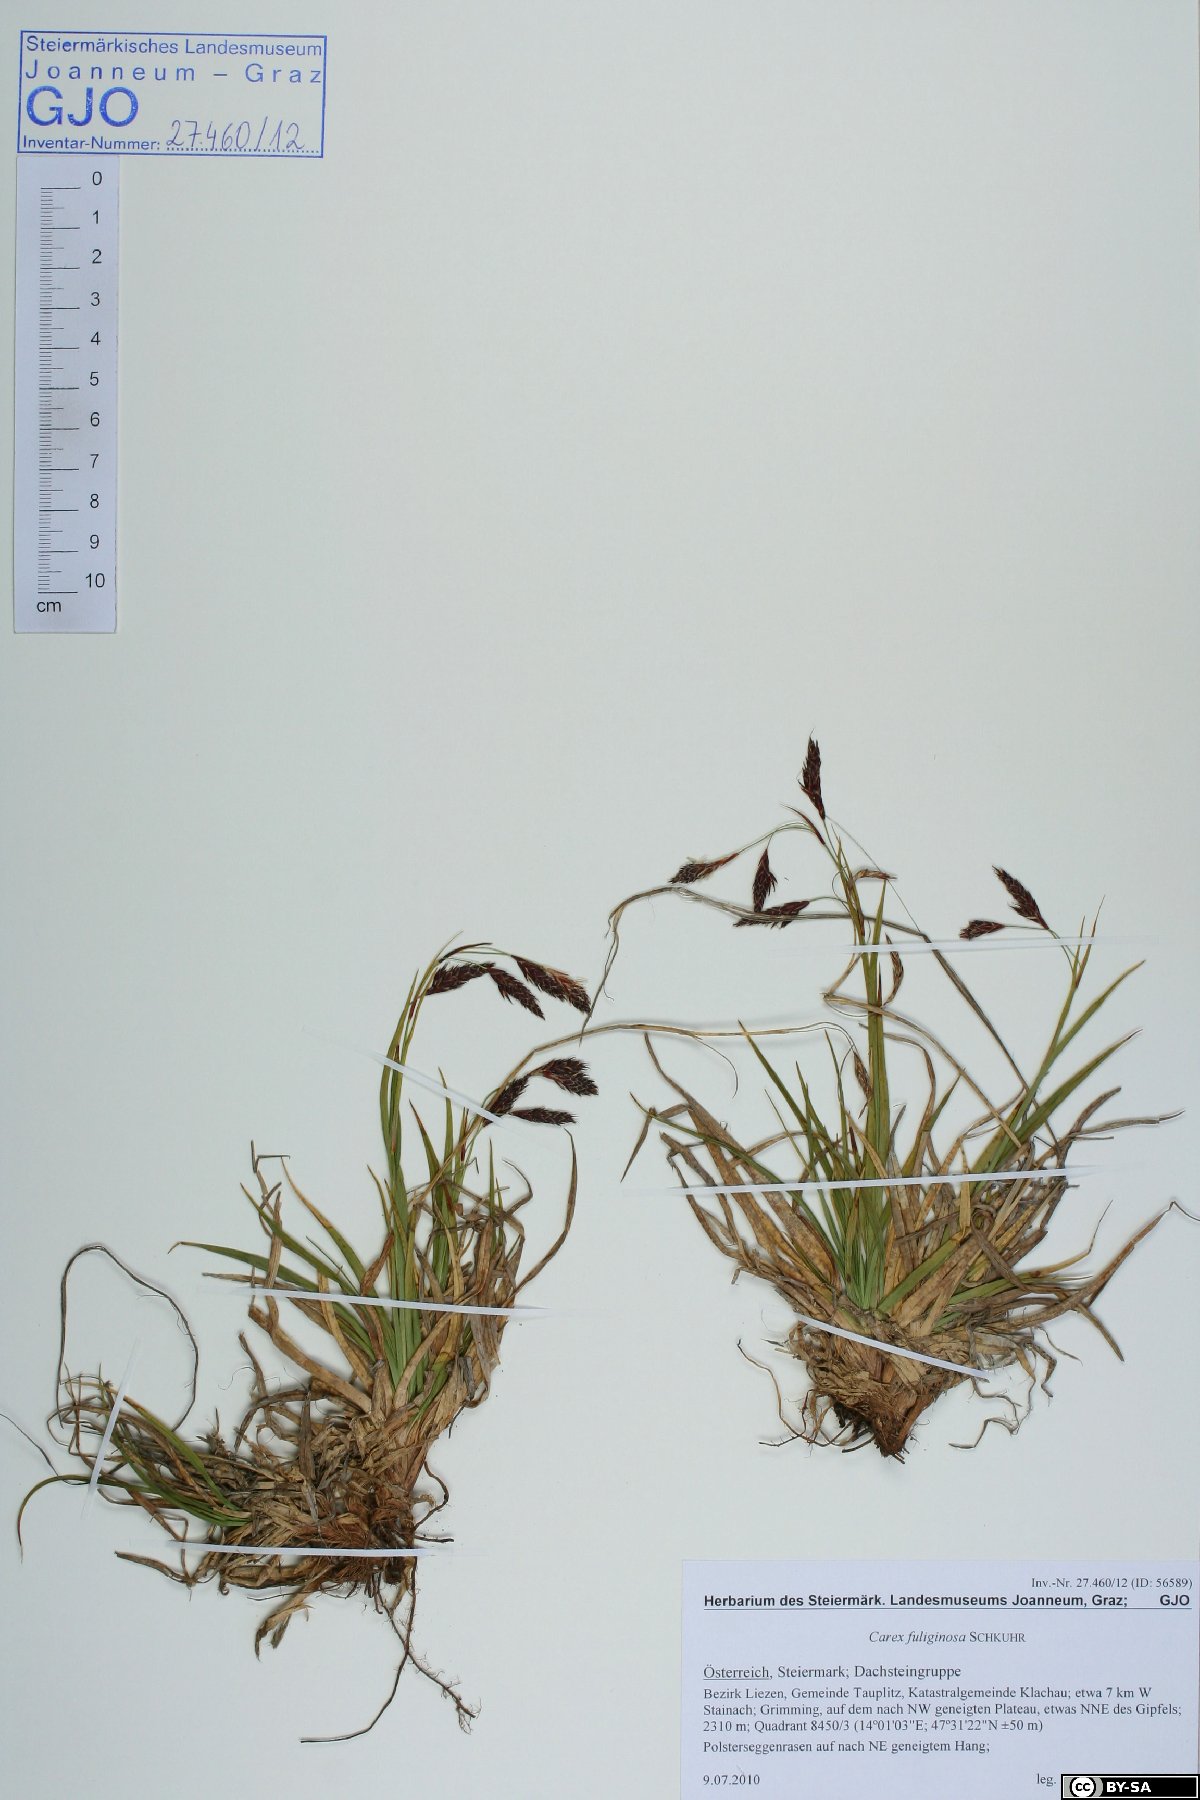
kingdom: Plantae
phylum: Tracheophyta
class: Liliopsida
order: Poales
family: Cyperaceae
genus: Carex
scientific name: Carex fuliginosa
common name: Few-flowered sedge
